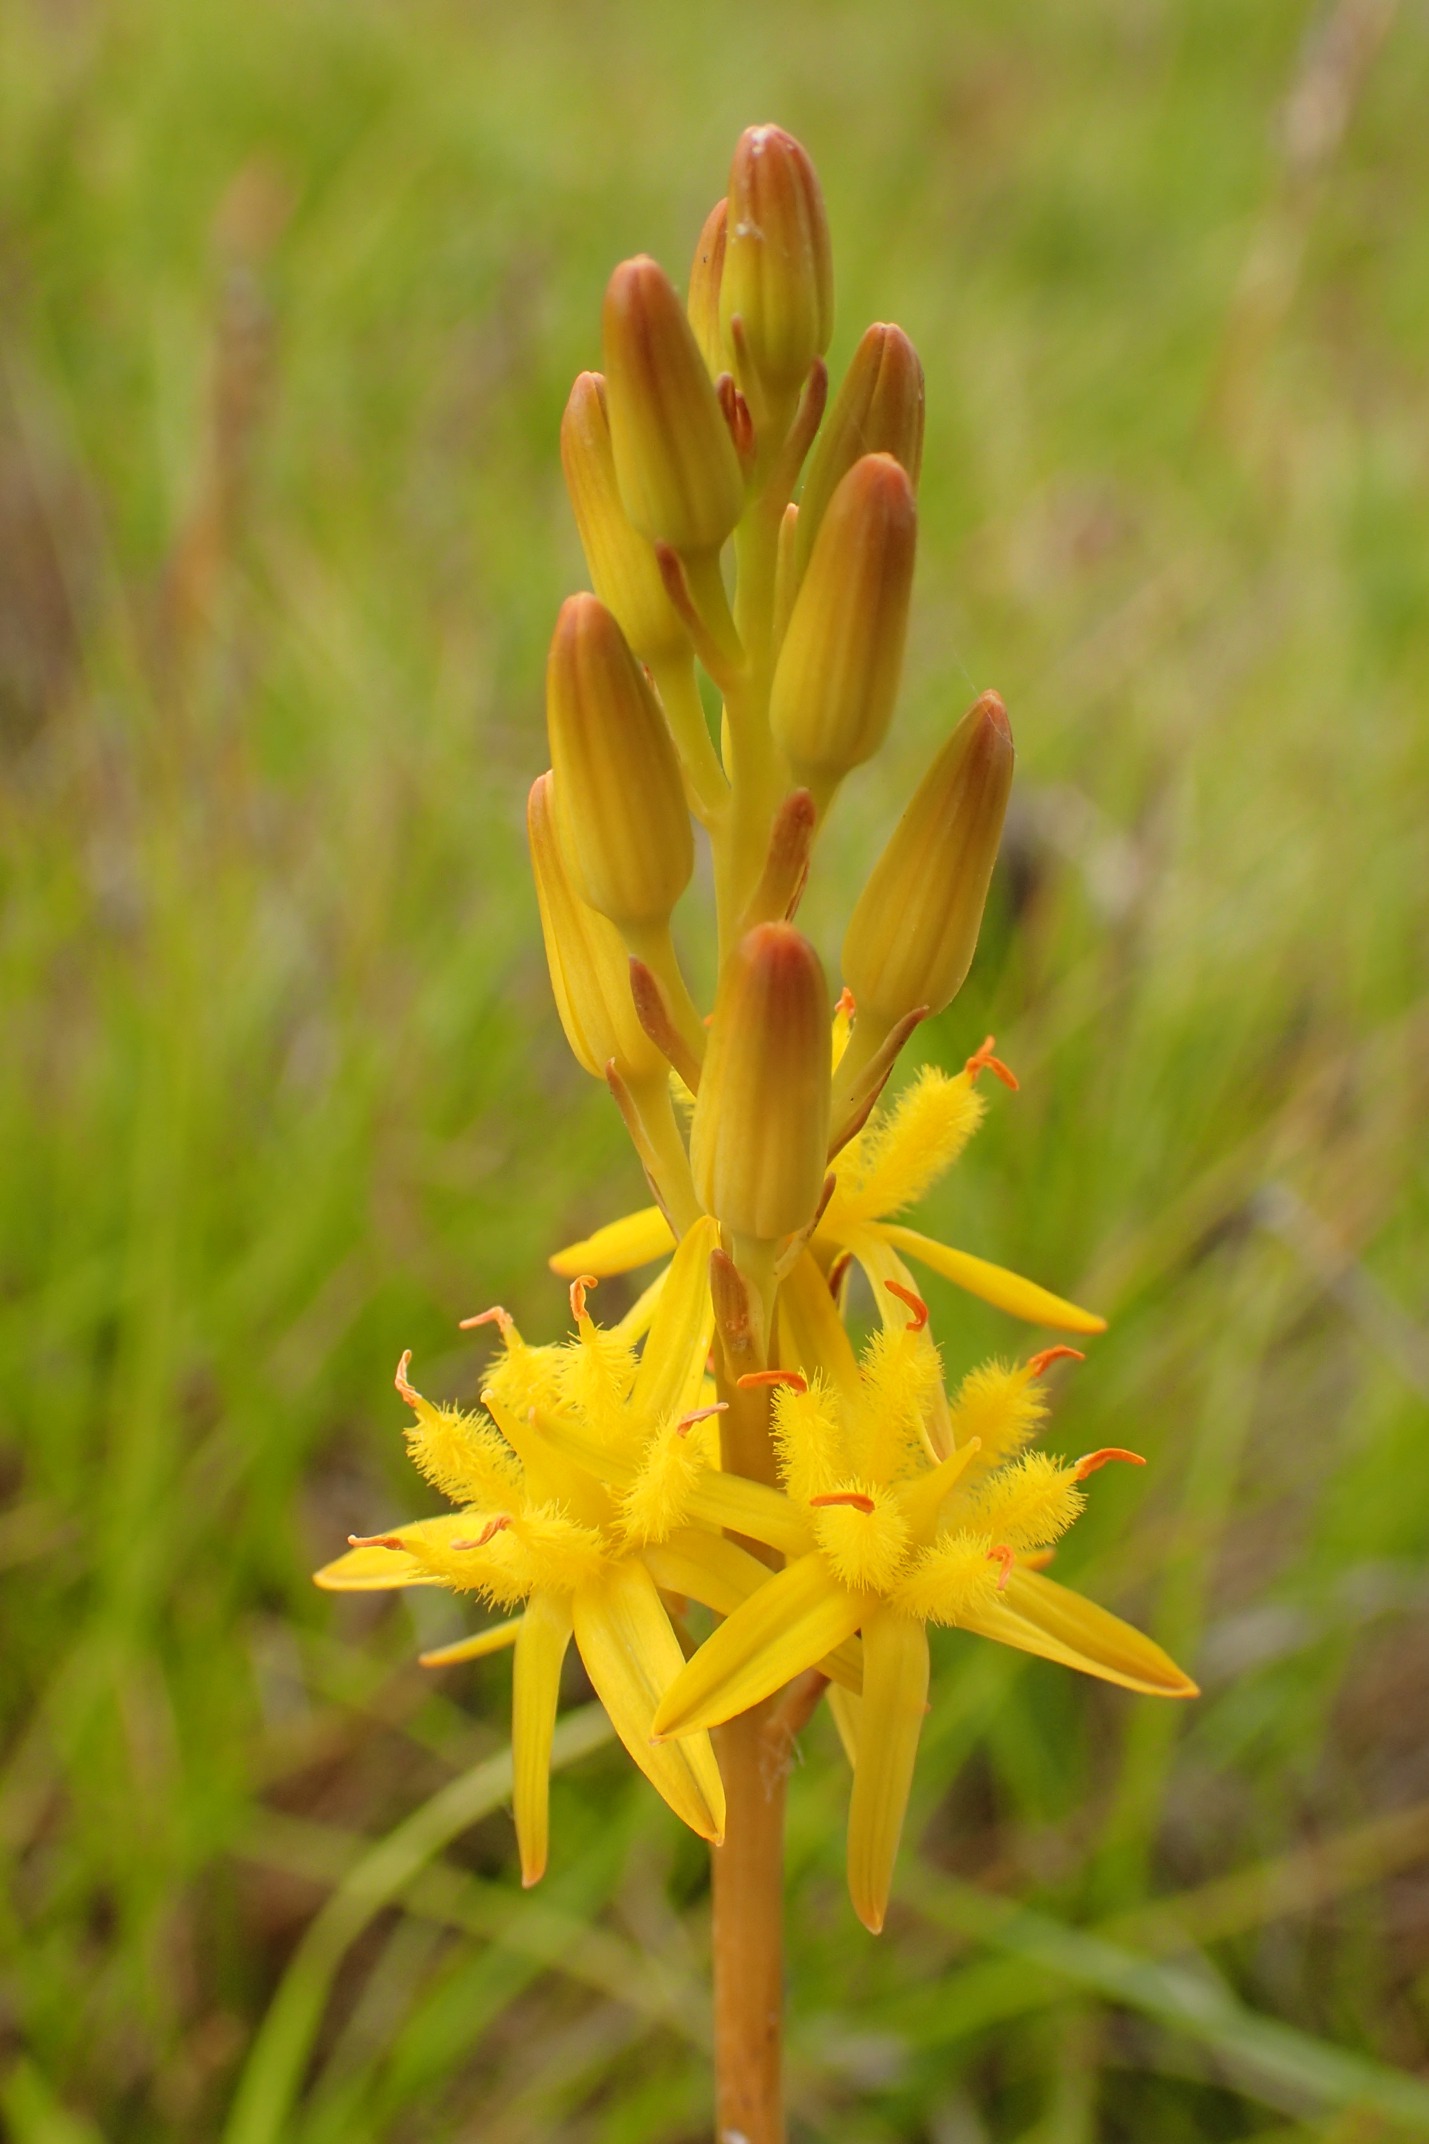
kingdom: Plantae
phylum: Tracheophyta
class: Liliopsida
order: Dioscoreales
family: Nartheciaceae
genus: Narthecium
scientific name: Narthecium ossifragum
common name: Benbræk
